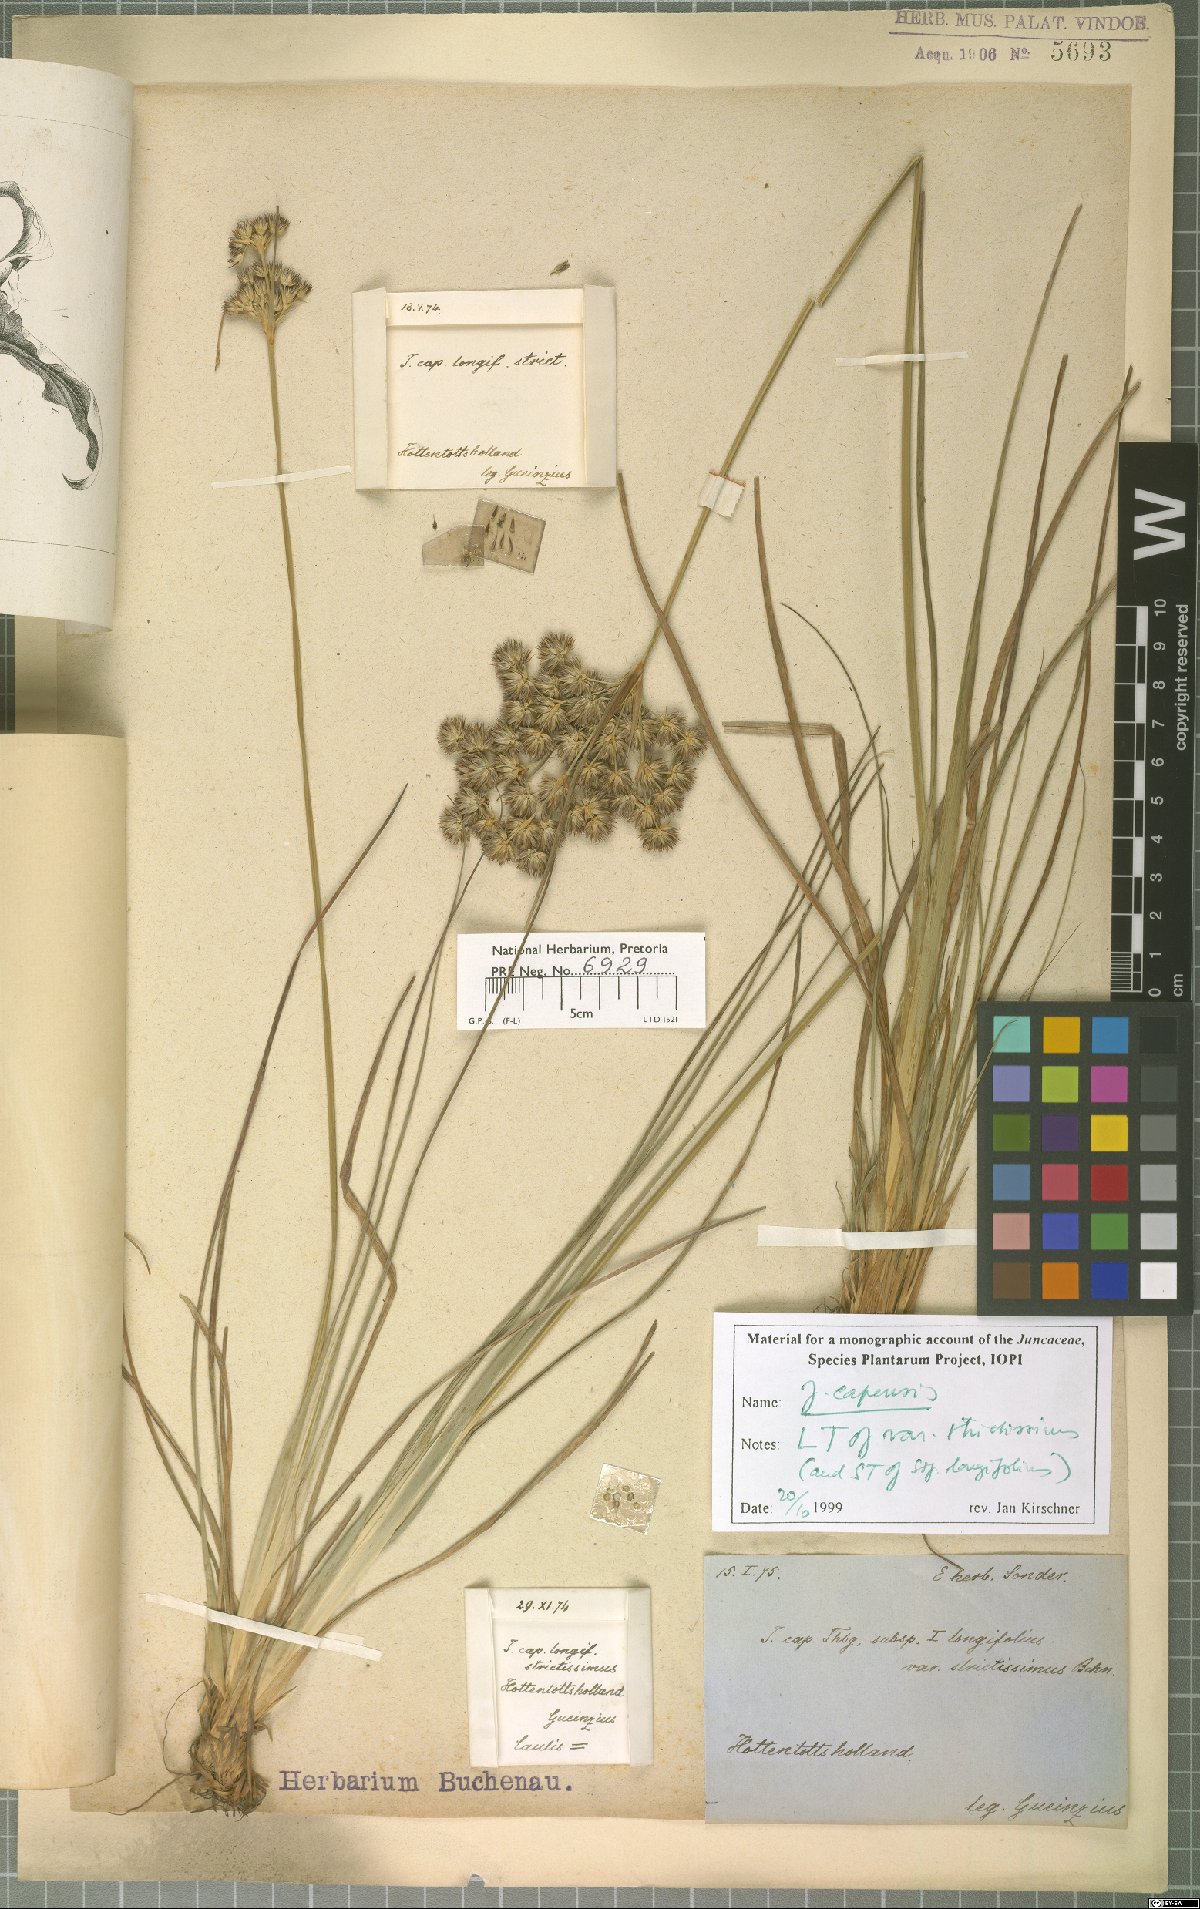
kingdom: Plantae
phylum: Tracheophyta
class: Liliopsida
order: Poales
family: Juncaceae
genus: Juncus
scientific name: Juncus capensis
